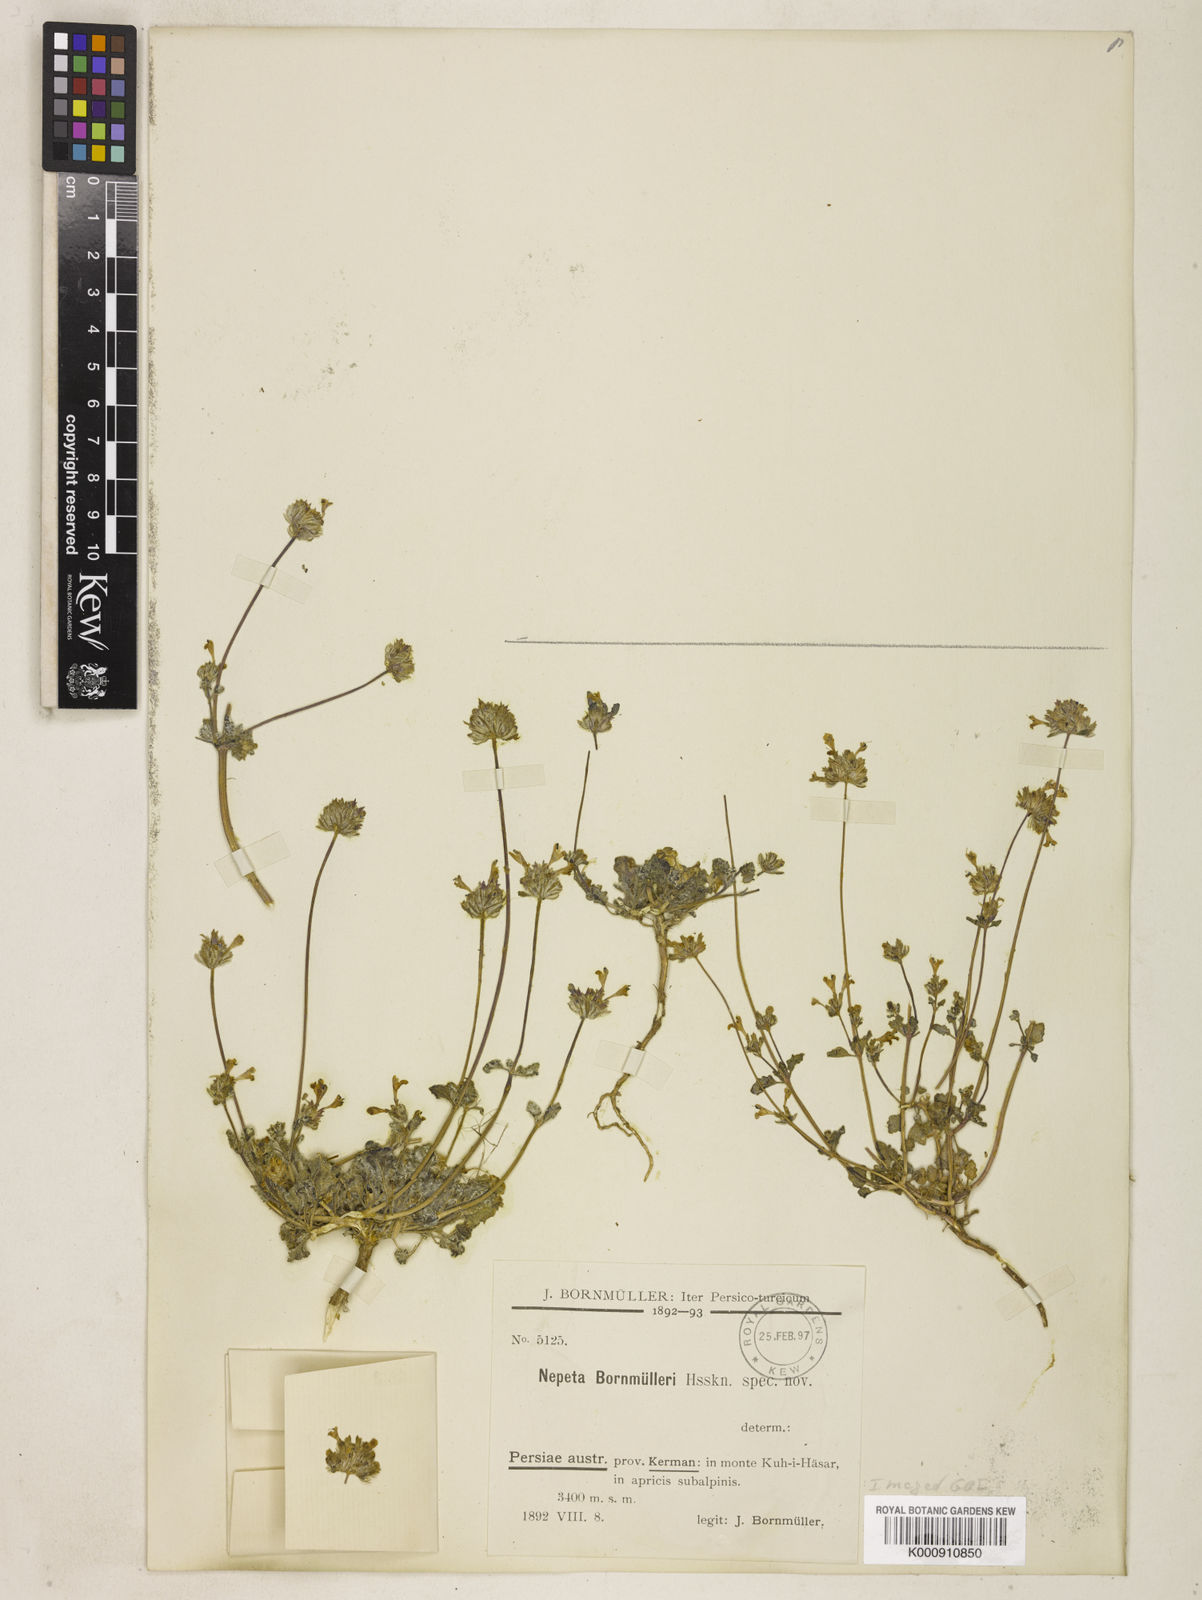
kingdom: Plantae
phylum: Tracheophyta
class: Magnoliopsida
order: Lamiales
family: Lamiaceae
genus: Nepeta
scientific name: Nepeta
